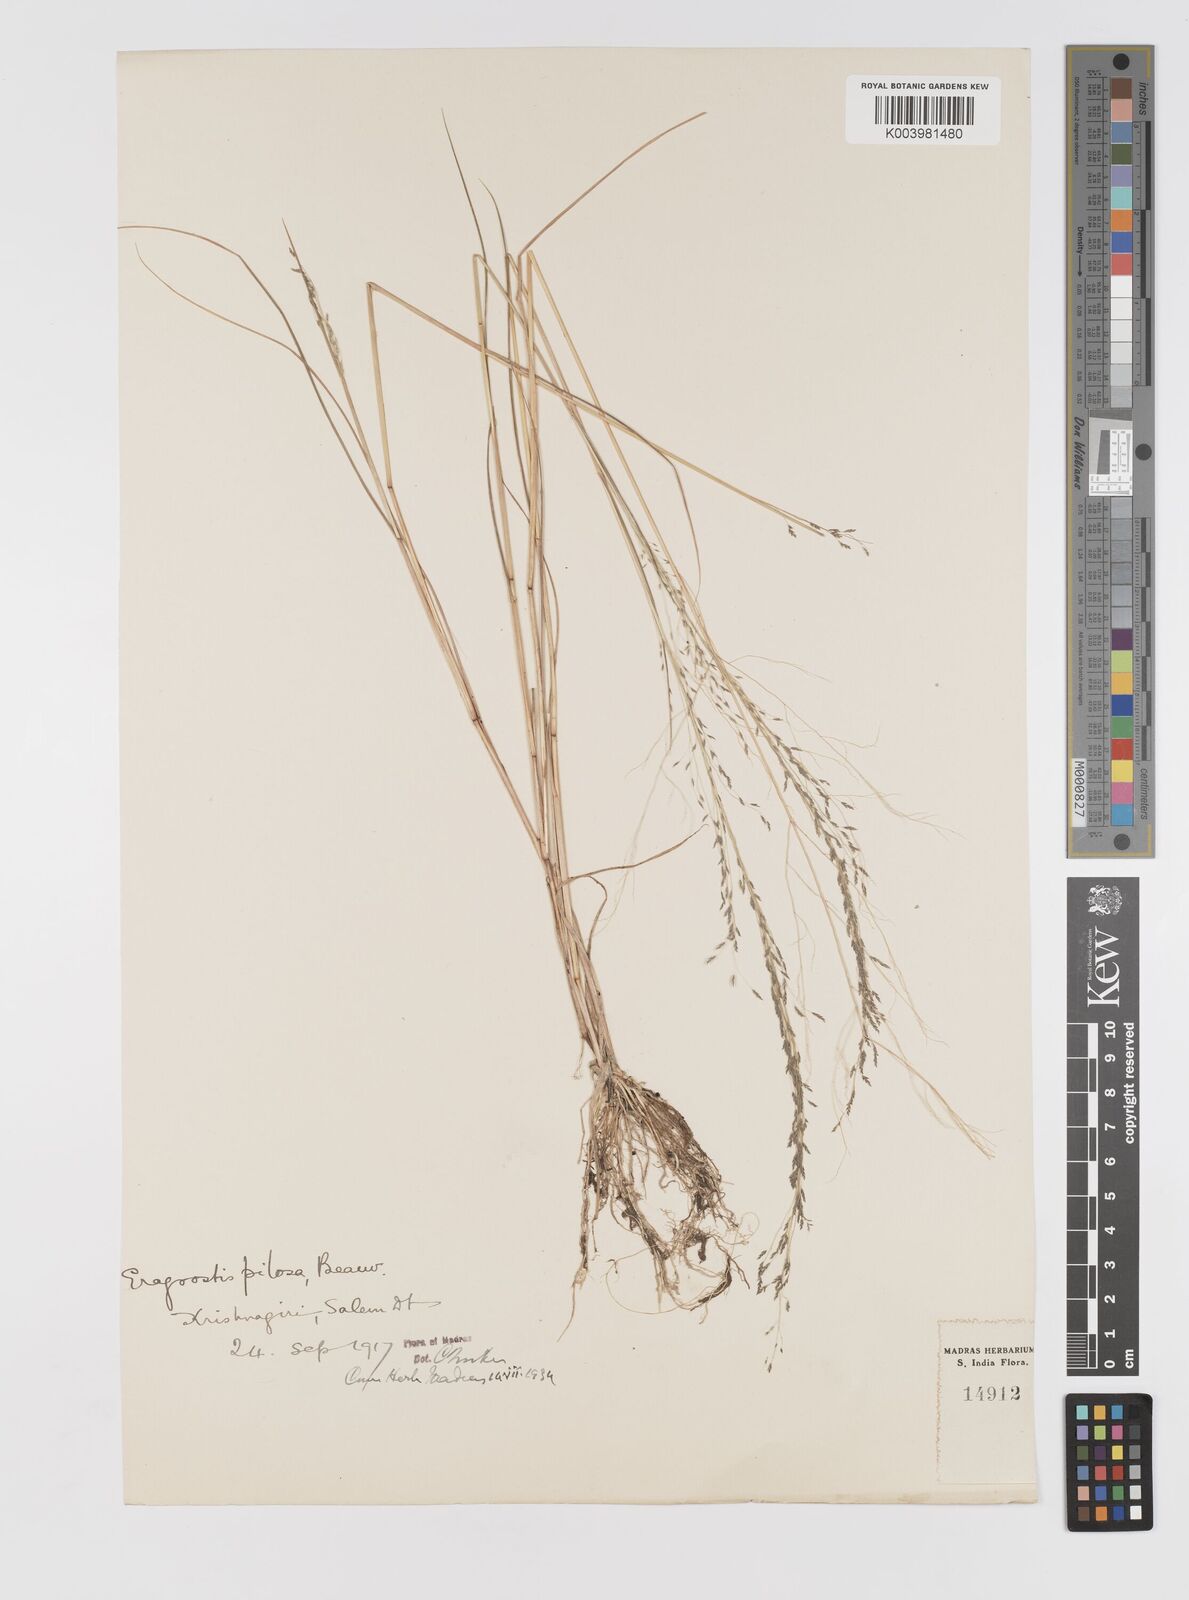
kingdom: Plantae
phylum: Tracheophyta
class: Liliopsida
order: Poales
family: Poaceae
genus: Eragrostis
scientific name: Eragrostis pilosa
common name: Indian lovegrass
